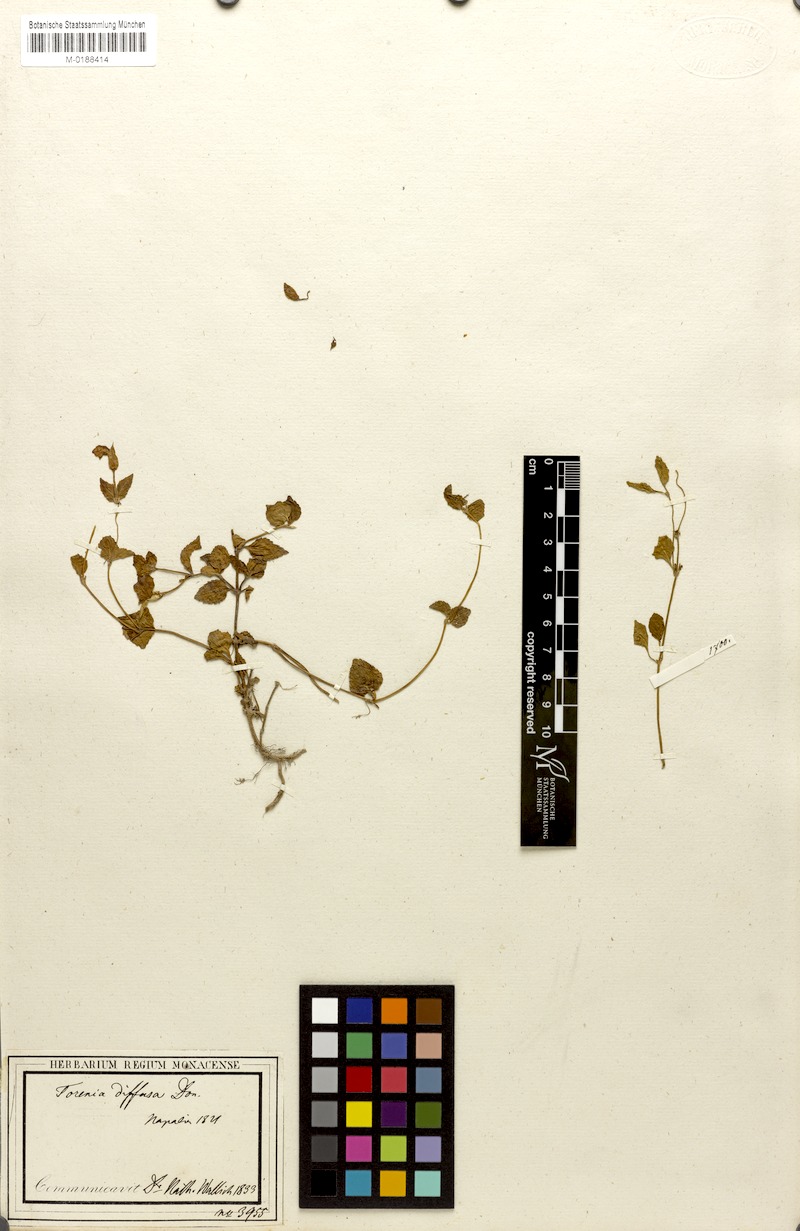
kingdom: Plantae
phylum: Tracheophyta
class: Magnoliopsida
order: Lamiales
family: Linderniaceae
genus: Torenia
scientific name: Torenia diffusa
